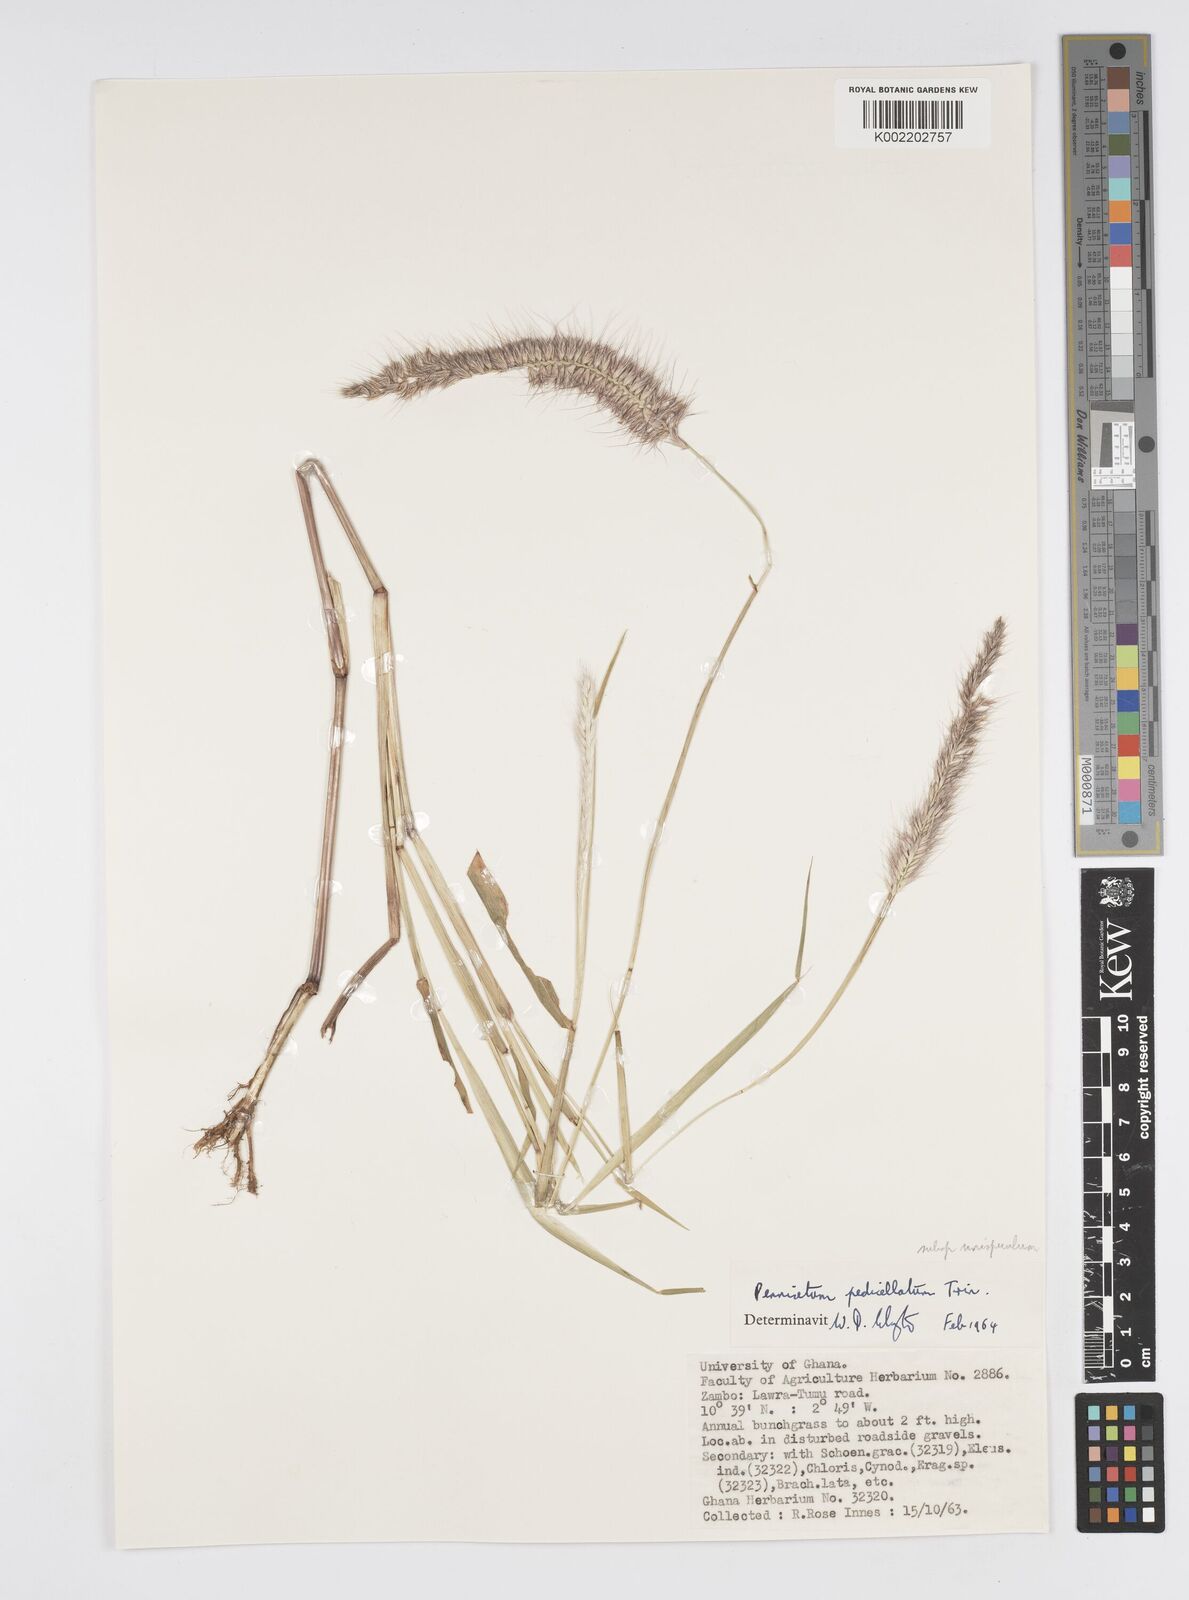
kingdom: Plantae
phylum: Tracheophyta
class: Liliopsida
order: Poales
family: Poaceae
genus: Cenchrus
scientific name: Cenchrus pedicellatus
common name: Hairy fountain grass
